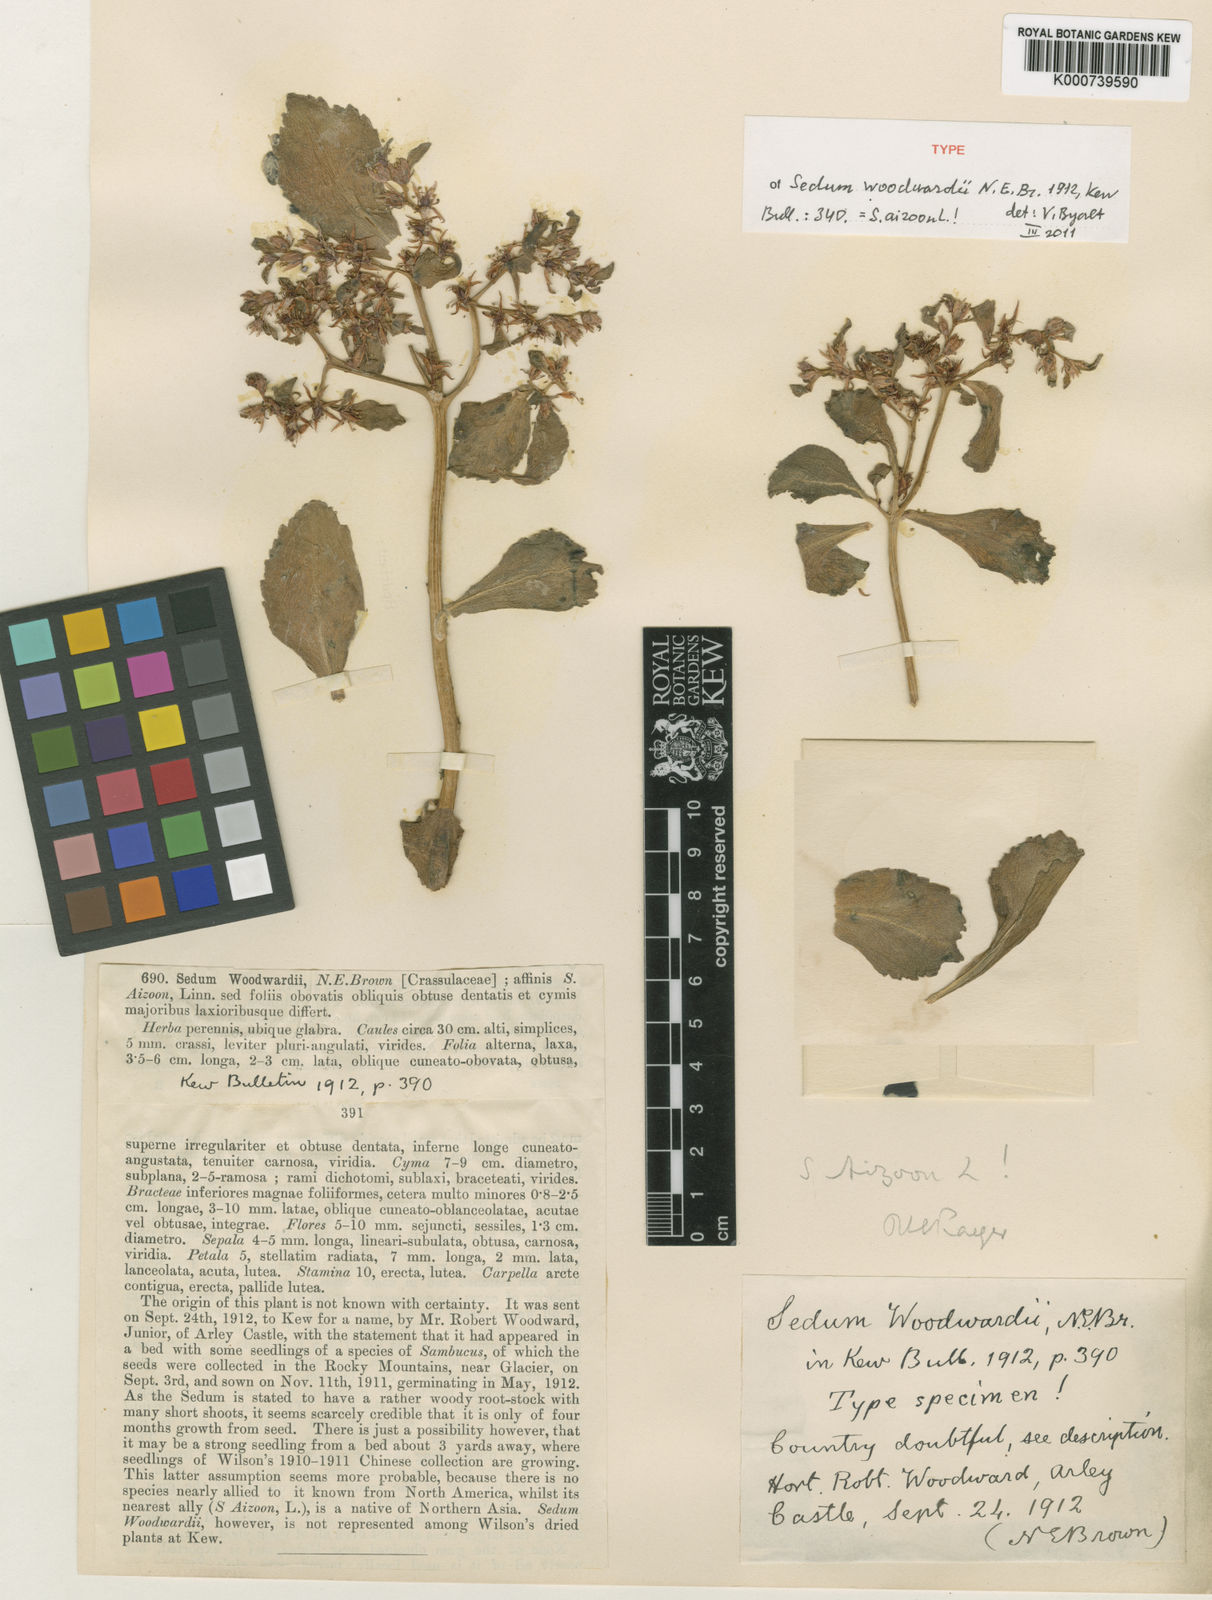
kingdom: Plantae
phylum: Tracheophyta
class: Magnoliopsida
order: Saxifragales
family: Crassulaceae
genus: Phedimus
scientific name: Phedimus aizoon
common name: Orpin aizoon
